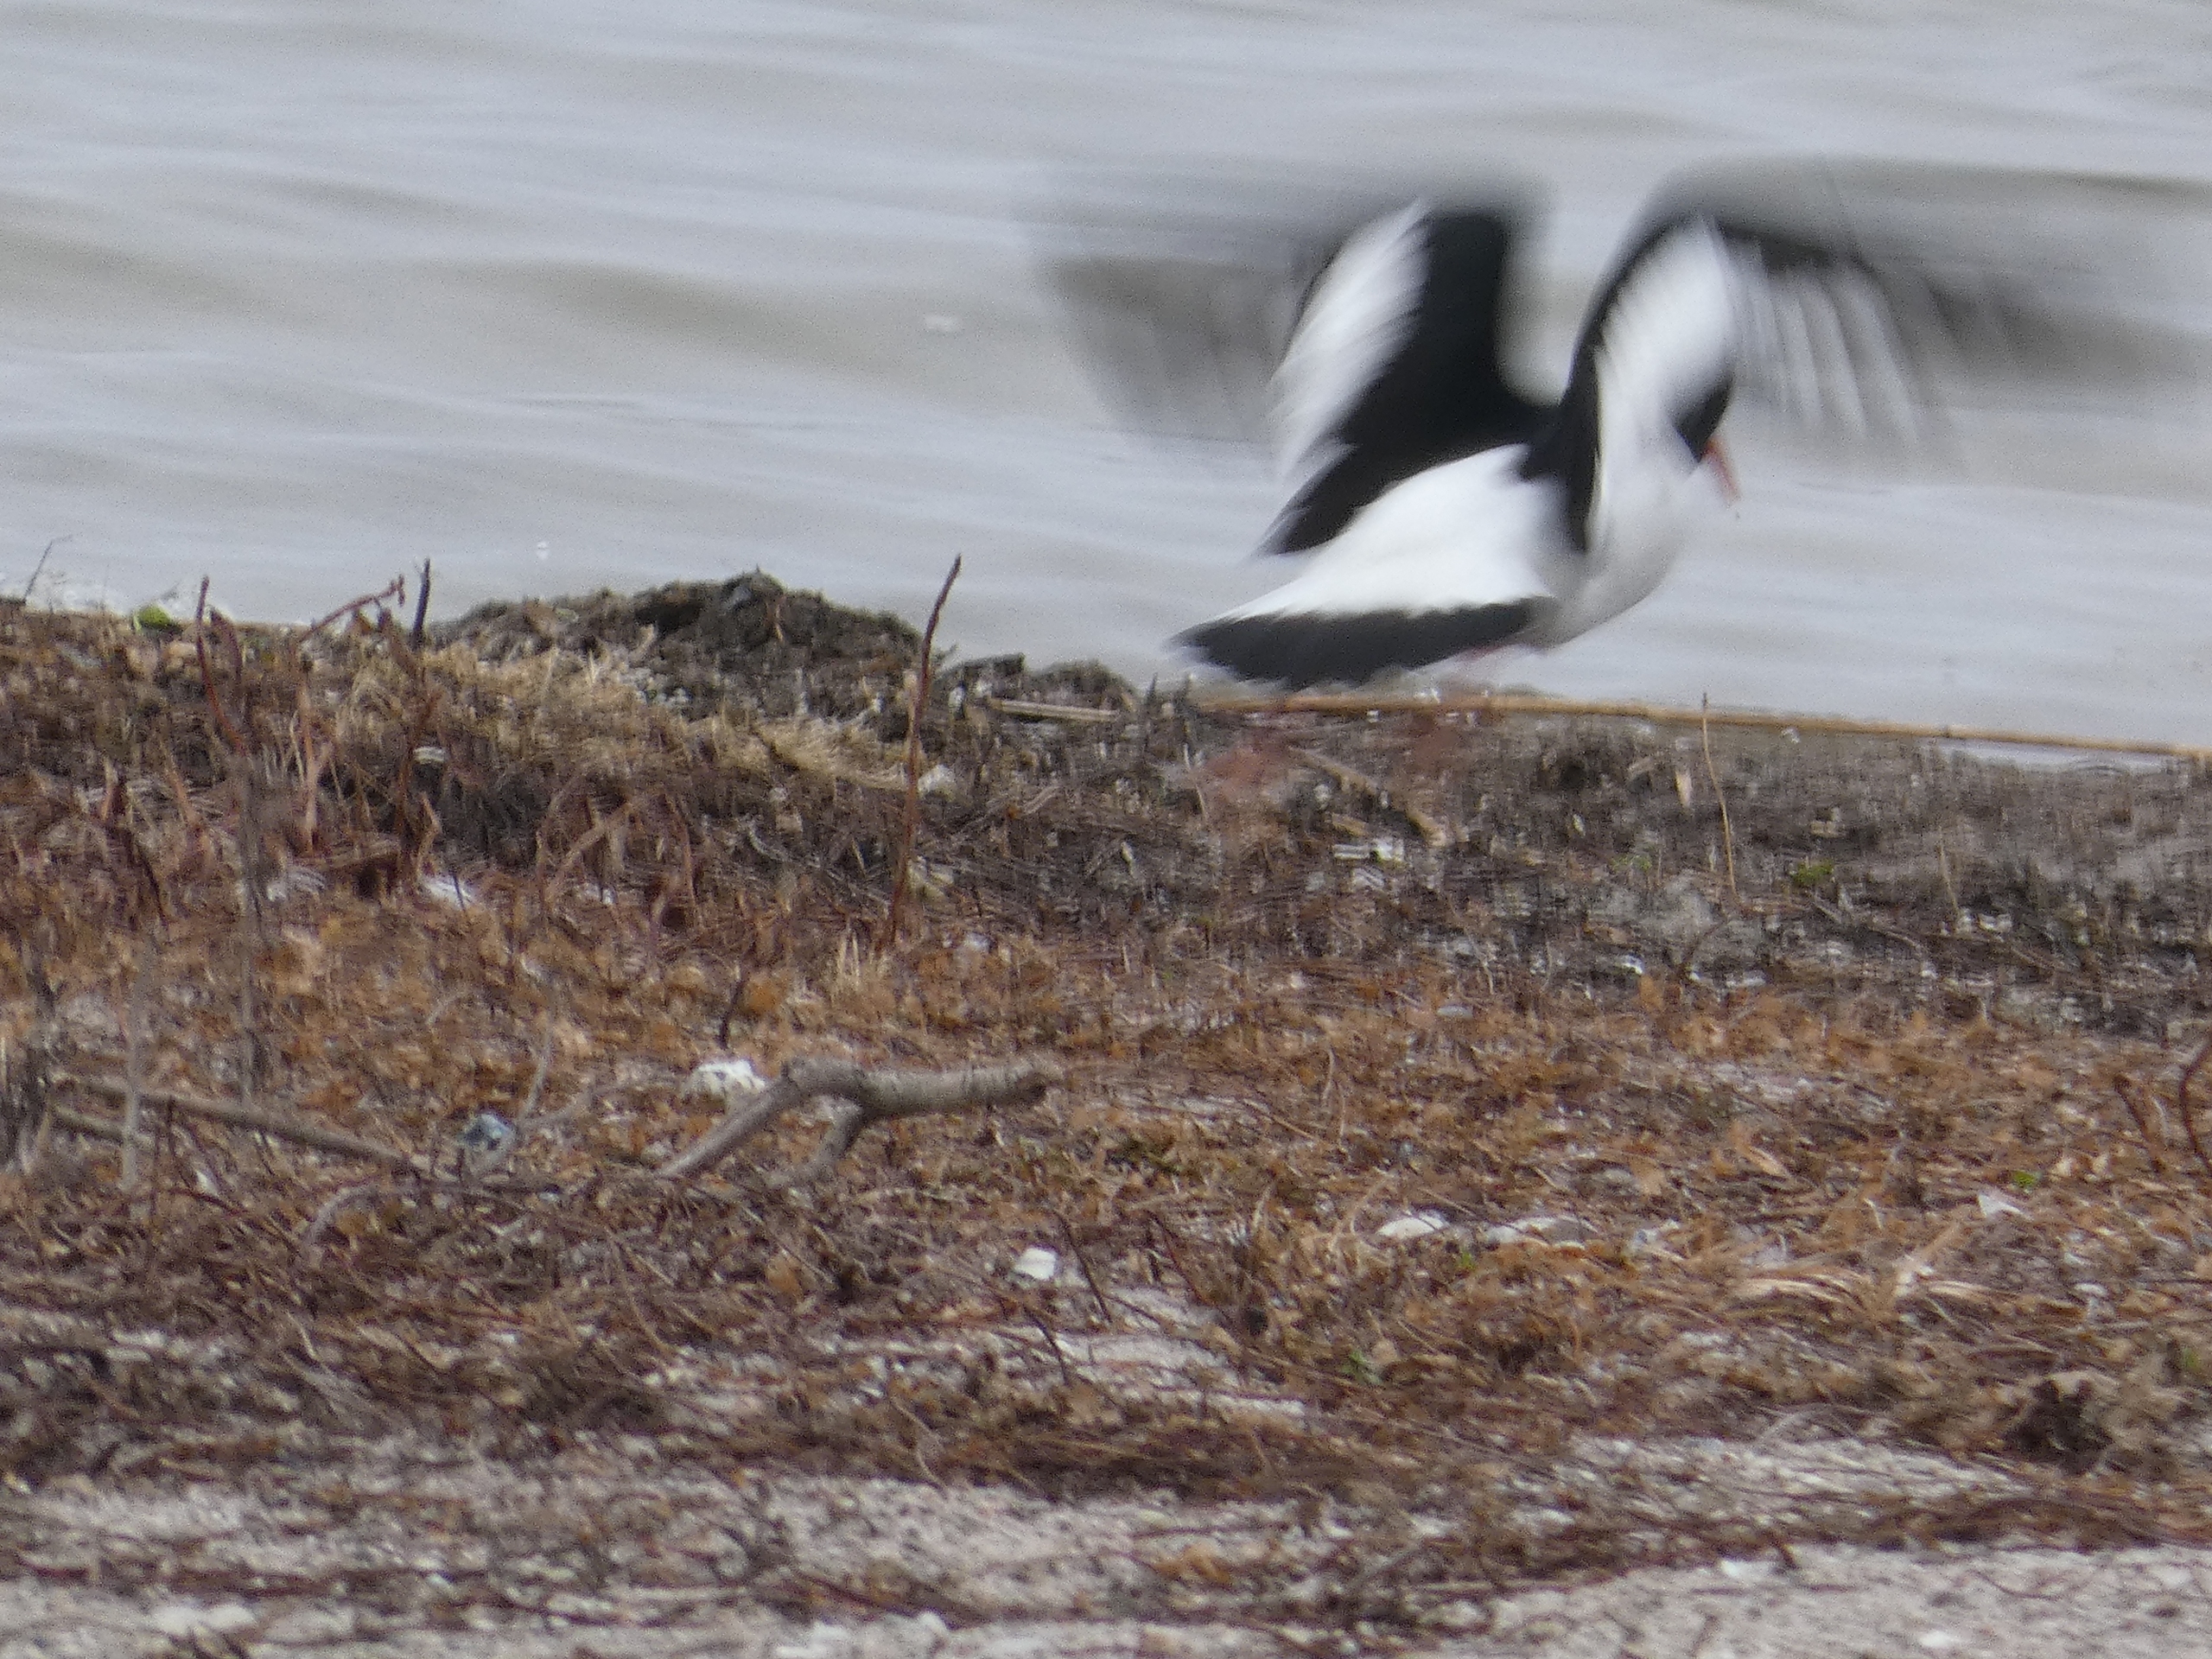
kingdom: Animalia
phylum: Chordata
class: Aves
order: Charadriiformes
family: Haematopodidae
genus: Haematopus
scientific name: Haematopus ostralegus
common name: Strandskade
